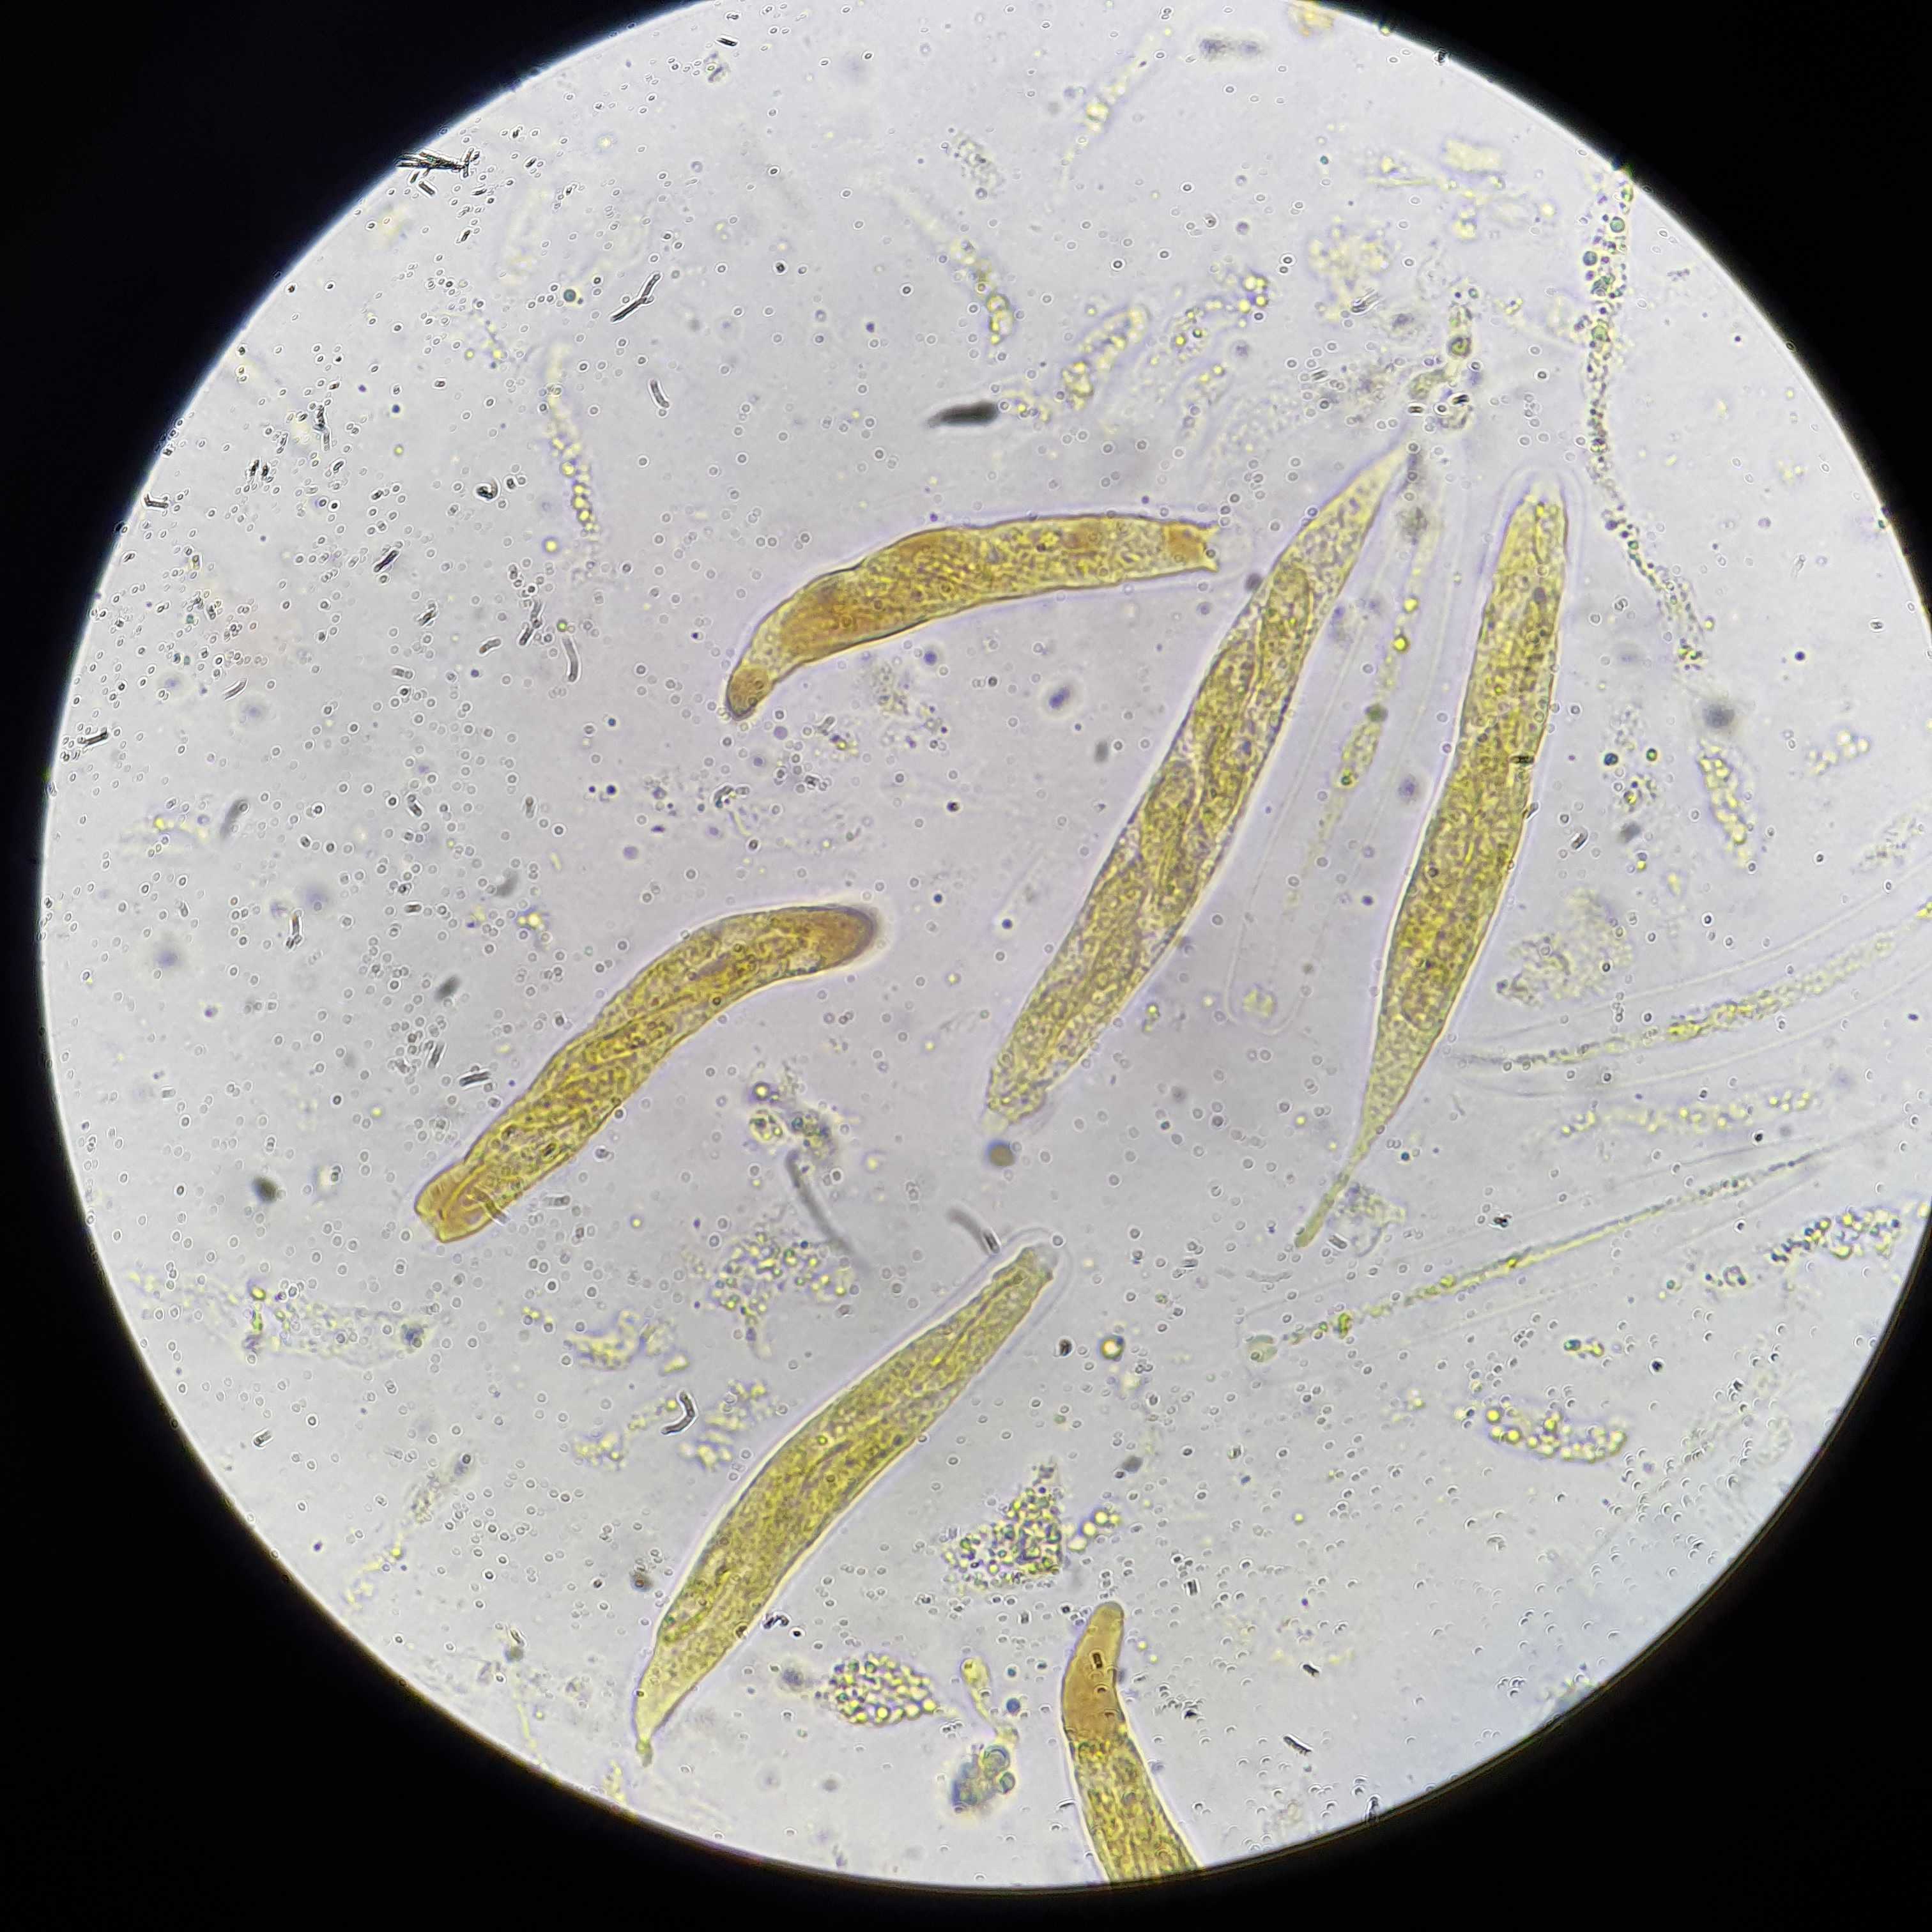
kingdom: Fungi
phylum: Ascomycota
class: Sordariomycetes
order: Diaporthales
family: Gnomoniaceae
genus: Plagiostoma
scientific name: Plagiostoma populinum
